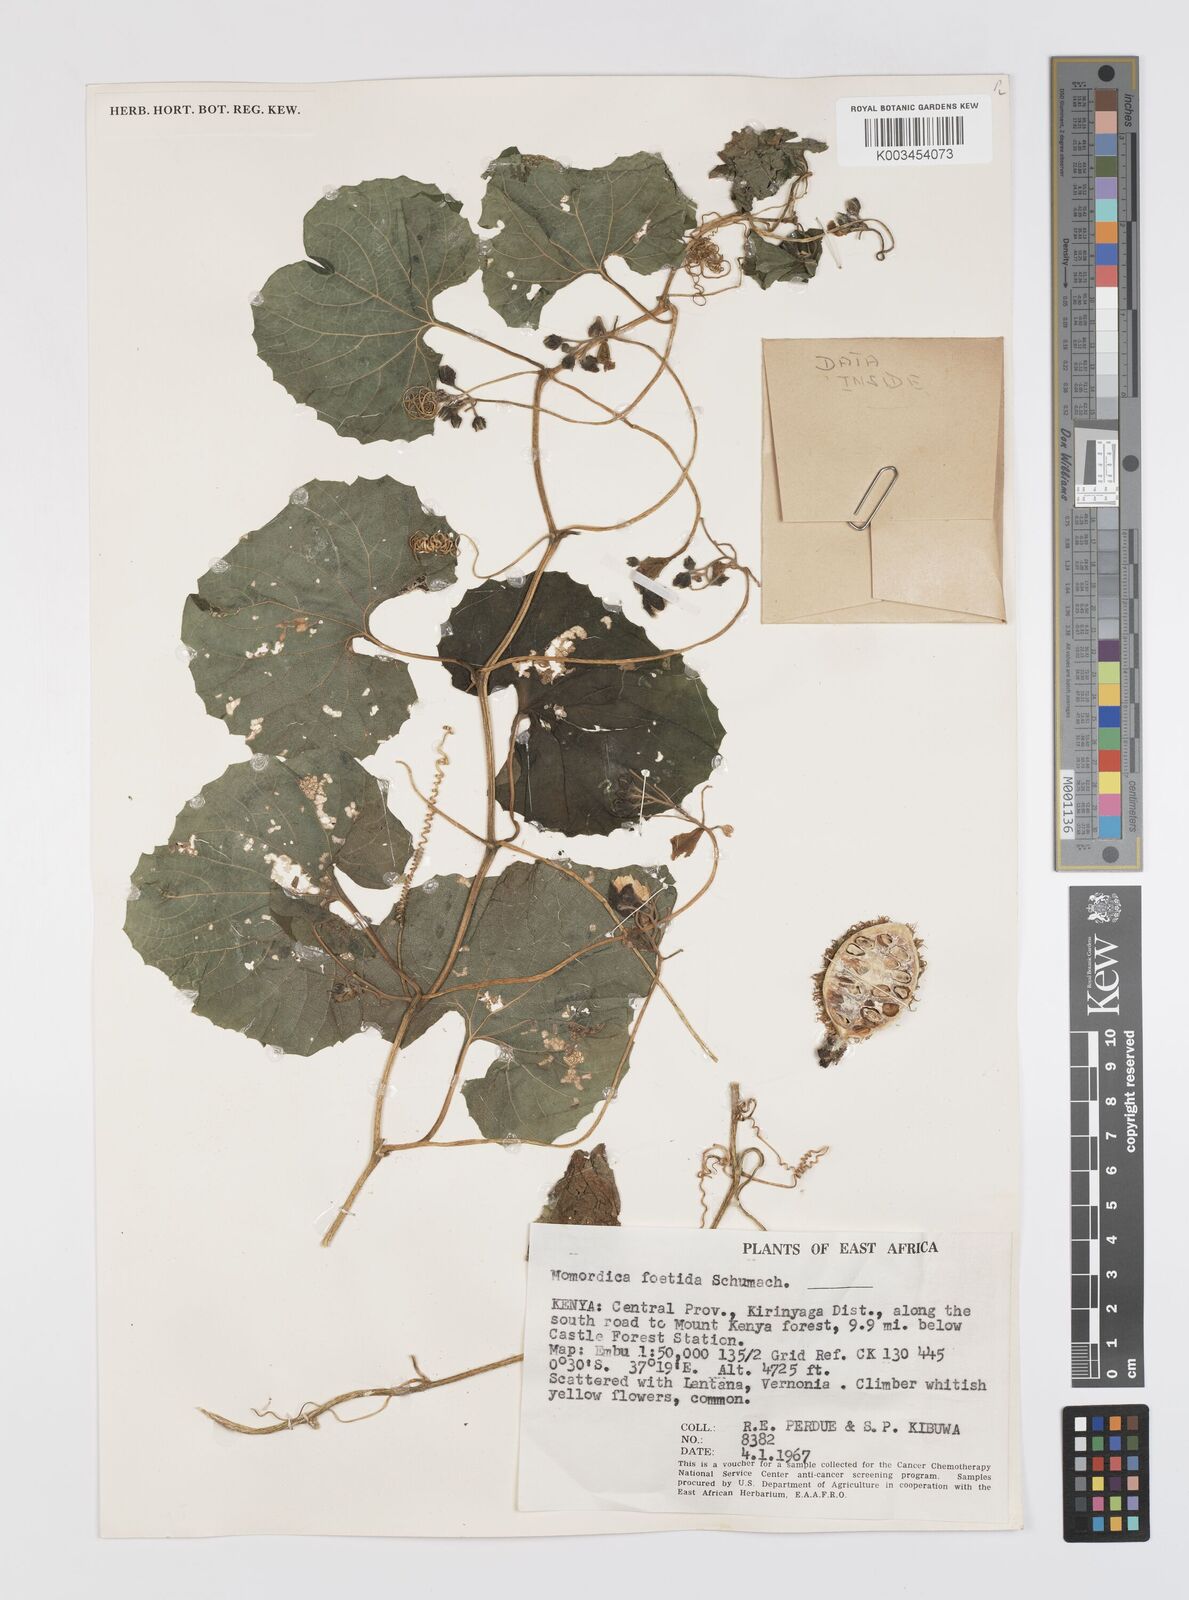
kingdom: Plantae
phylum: Tracheophyta
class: Magnoliopsida
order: Cucurbitales
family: Cucurbitaceae
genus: Momordica
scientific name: Momordica foetida
